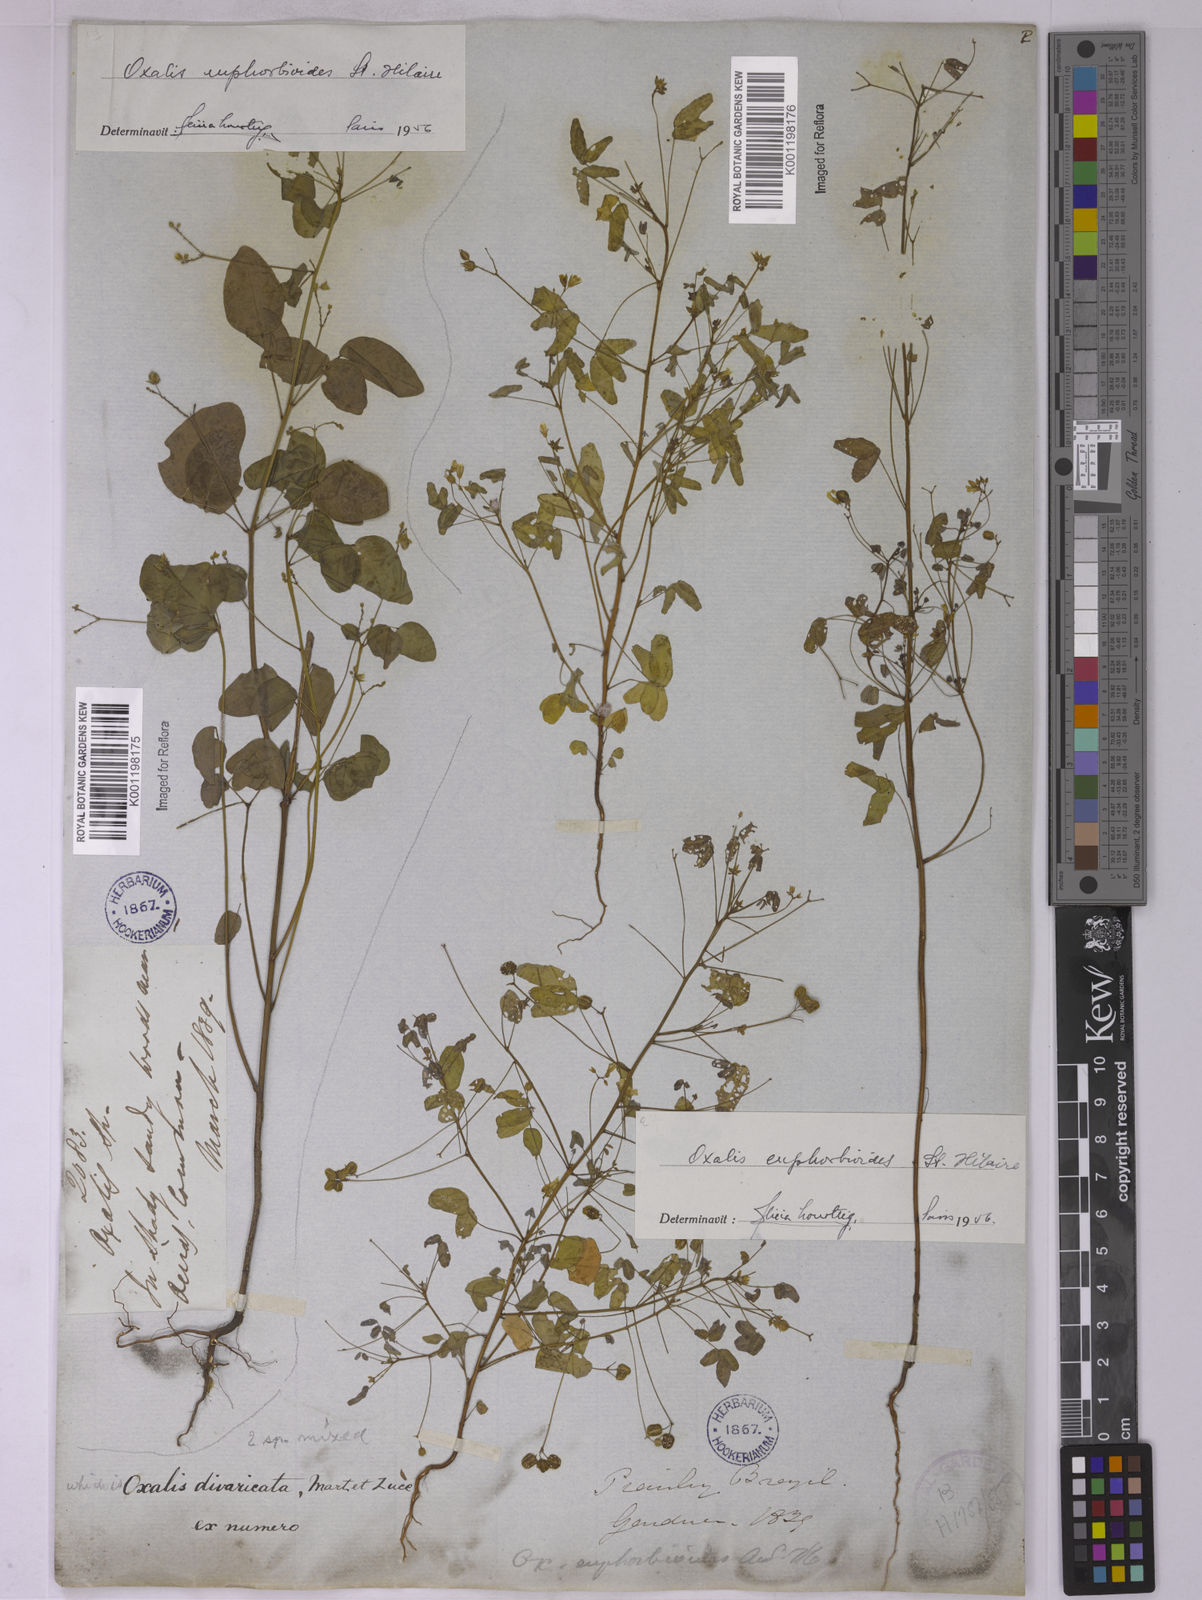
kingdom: Plantae
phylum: Tracheophyta
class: Magnoliopsida
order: Oxalidales
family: Oxalidaceae
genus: Oxalis
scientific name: Oxalis divaricata
